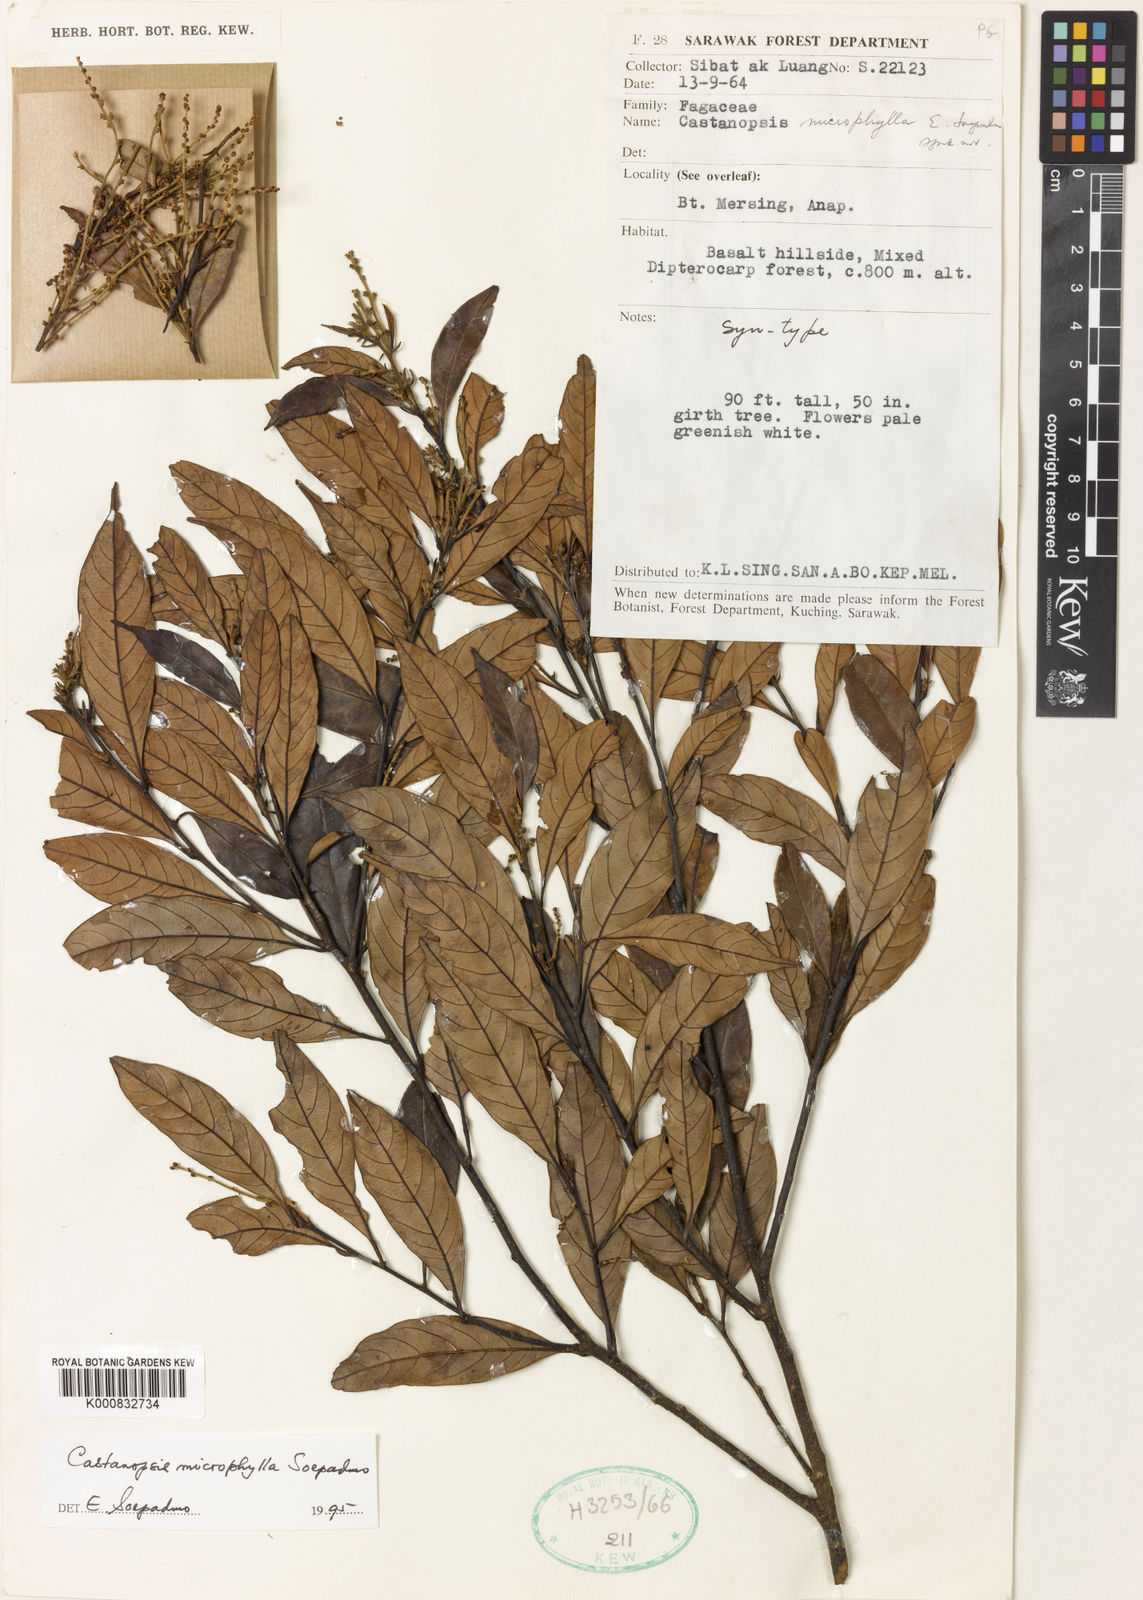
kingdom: Plantae
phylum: Tracheophyta
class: Magnoliopsida
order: Fagales
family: Fagaceae
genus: Castanopsis
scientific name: Castanopsis microphylla
